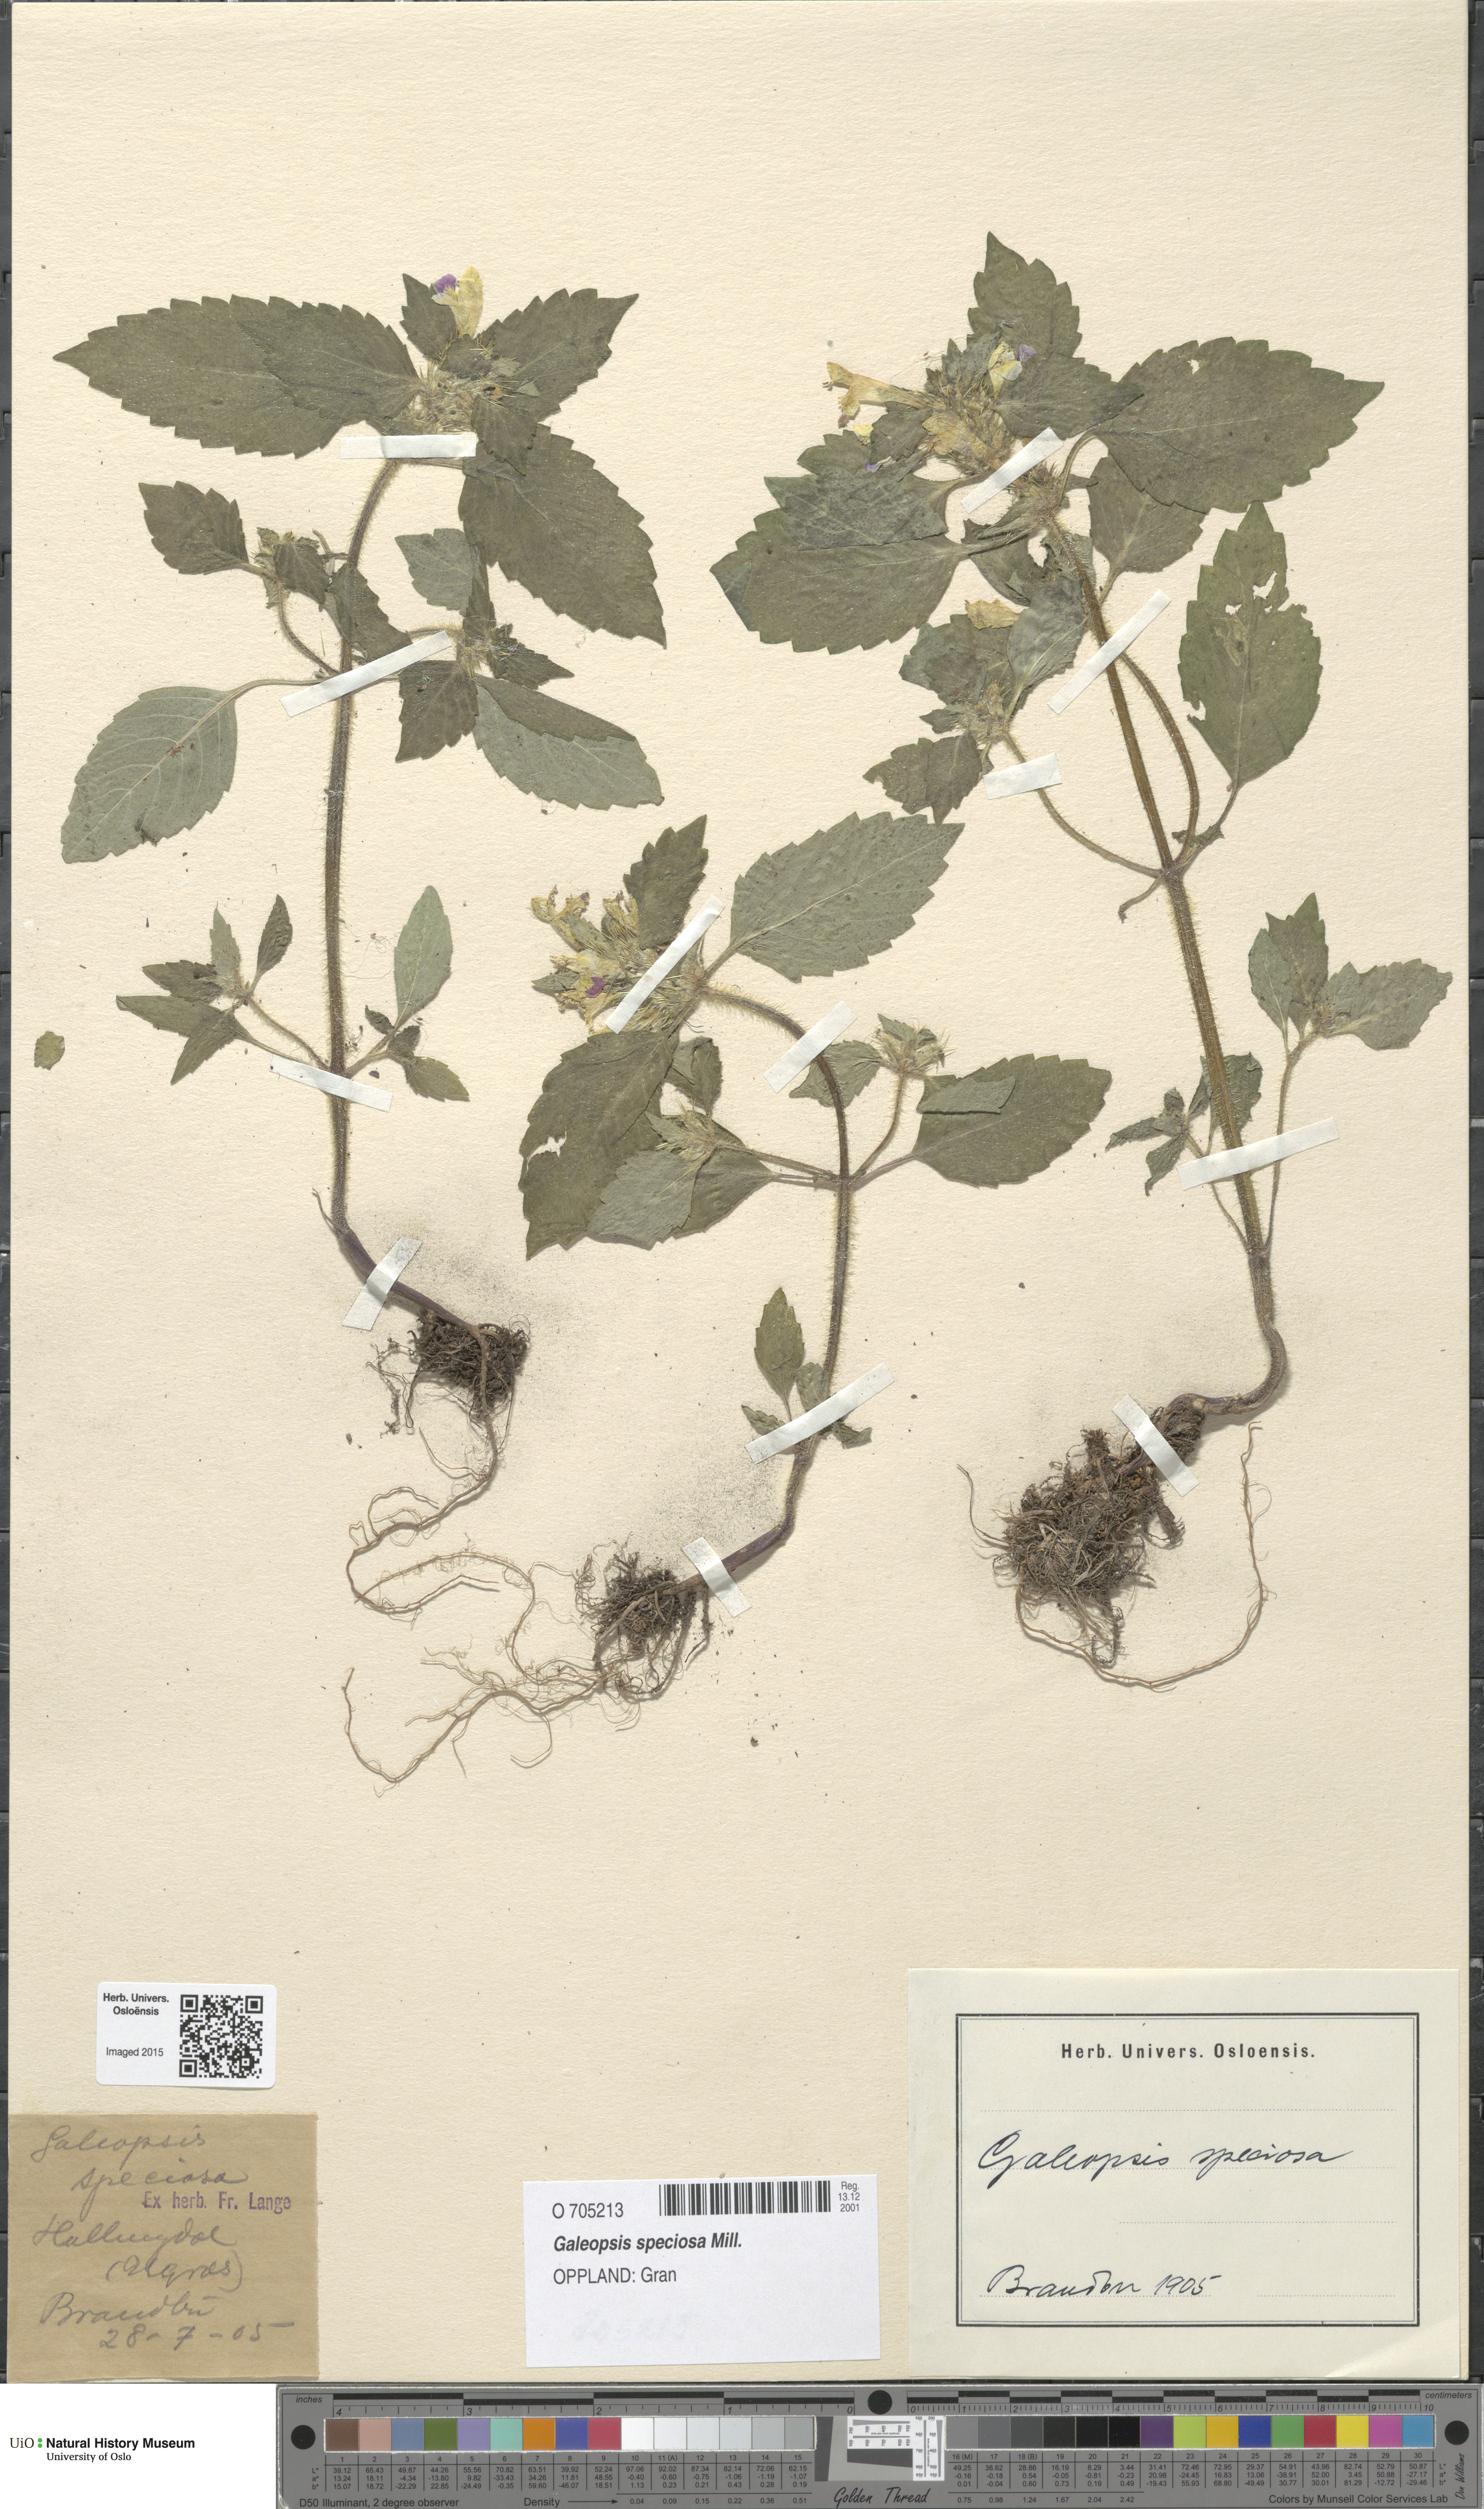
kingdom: Plantae
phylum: Tracheophyta
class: Magnoliopsida
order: Lamiales
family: Lamiaceae
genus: Galeopsis
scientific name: Galeopsis speciosa
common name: Large-flowered hemp-nettle
